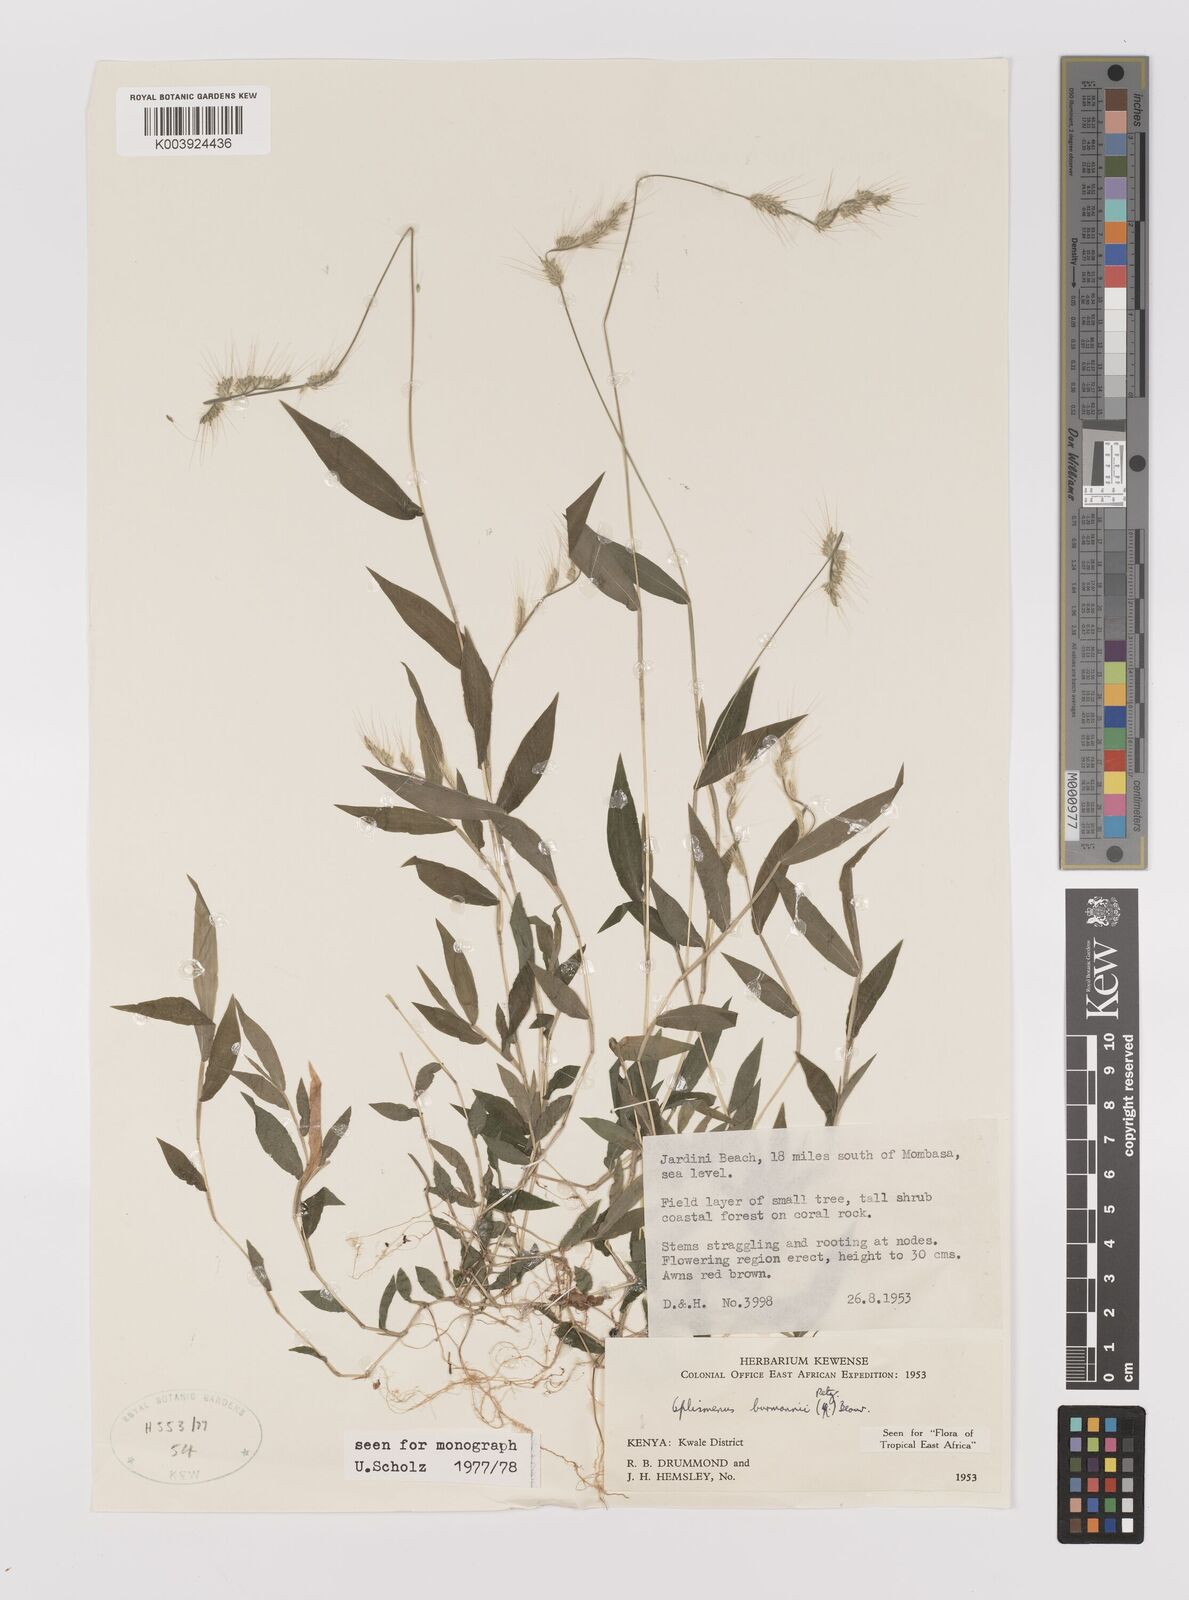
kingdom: Plantae
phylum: Tracheophyta
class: Liliopsida
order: Poales
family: Poaceae
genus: Oplismenus
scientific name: Oplismenus burmanni
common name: Burmann's basketgrass
